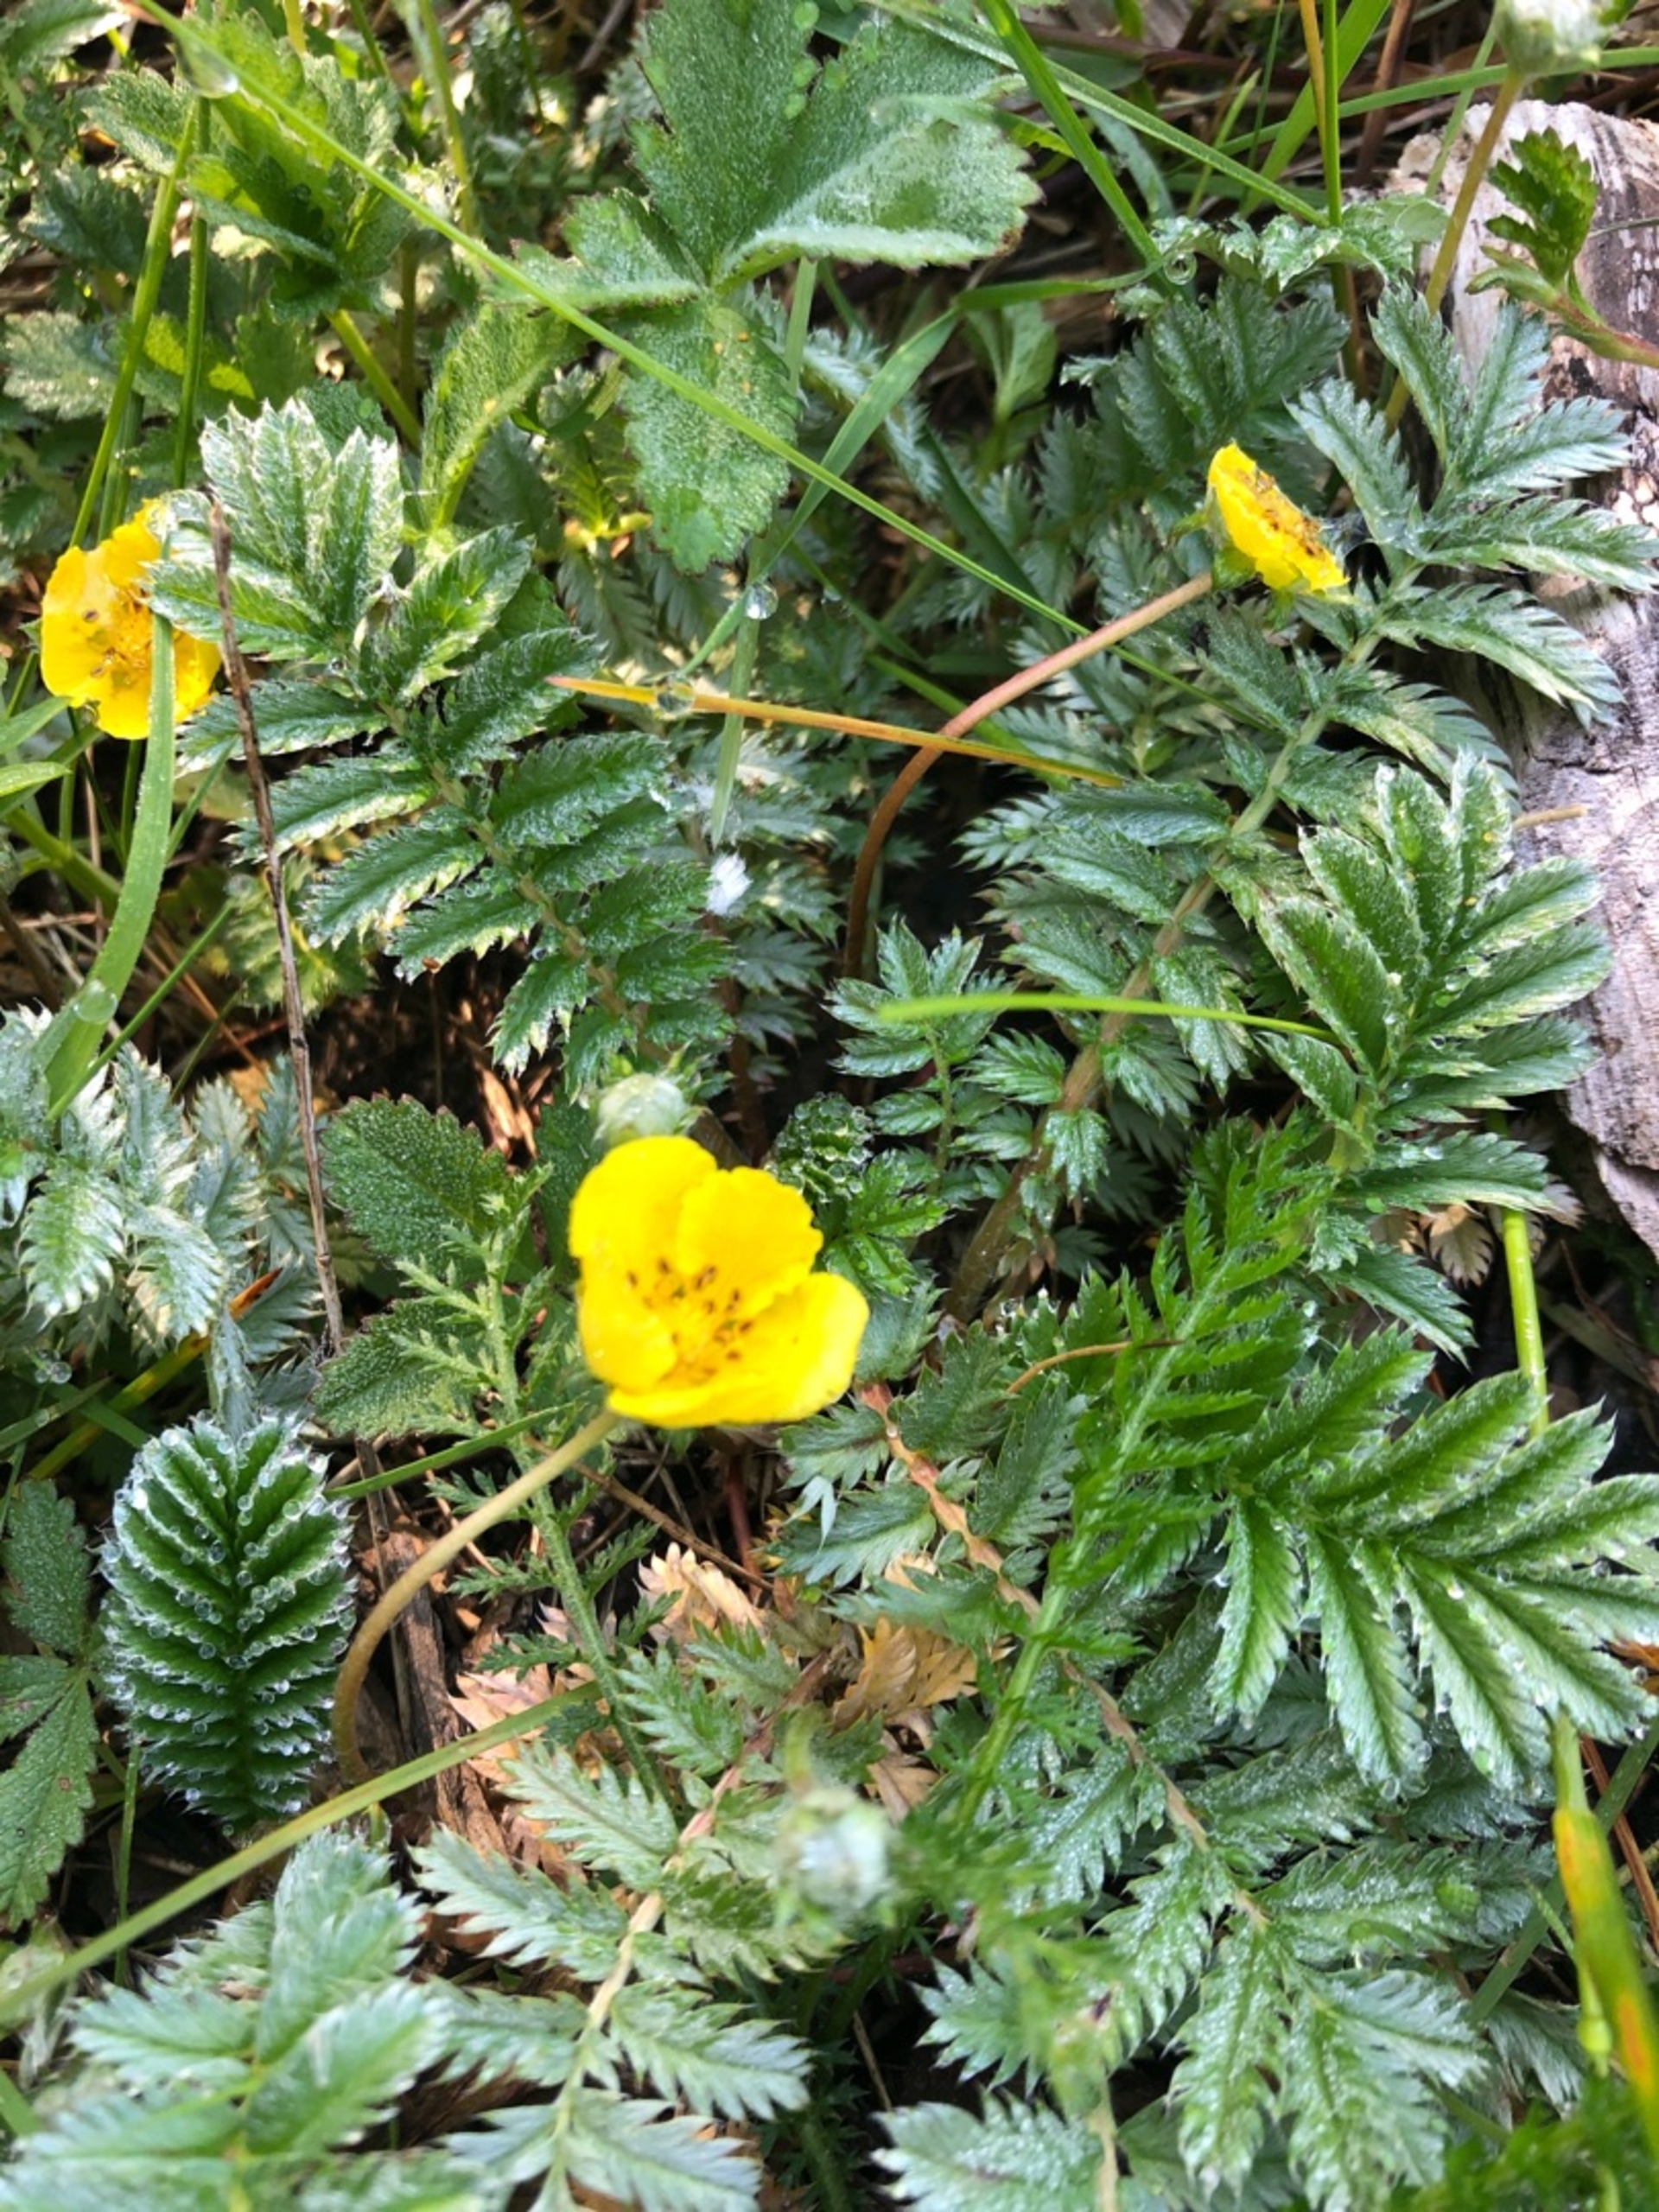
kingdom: Plantae
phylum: Tracheophyta
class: Magnoliopsida
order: Rosales
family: Rosaceae
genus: Argentina
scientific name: Argentina anserina
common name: Gåsepotentil
